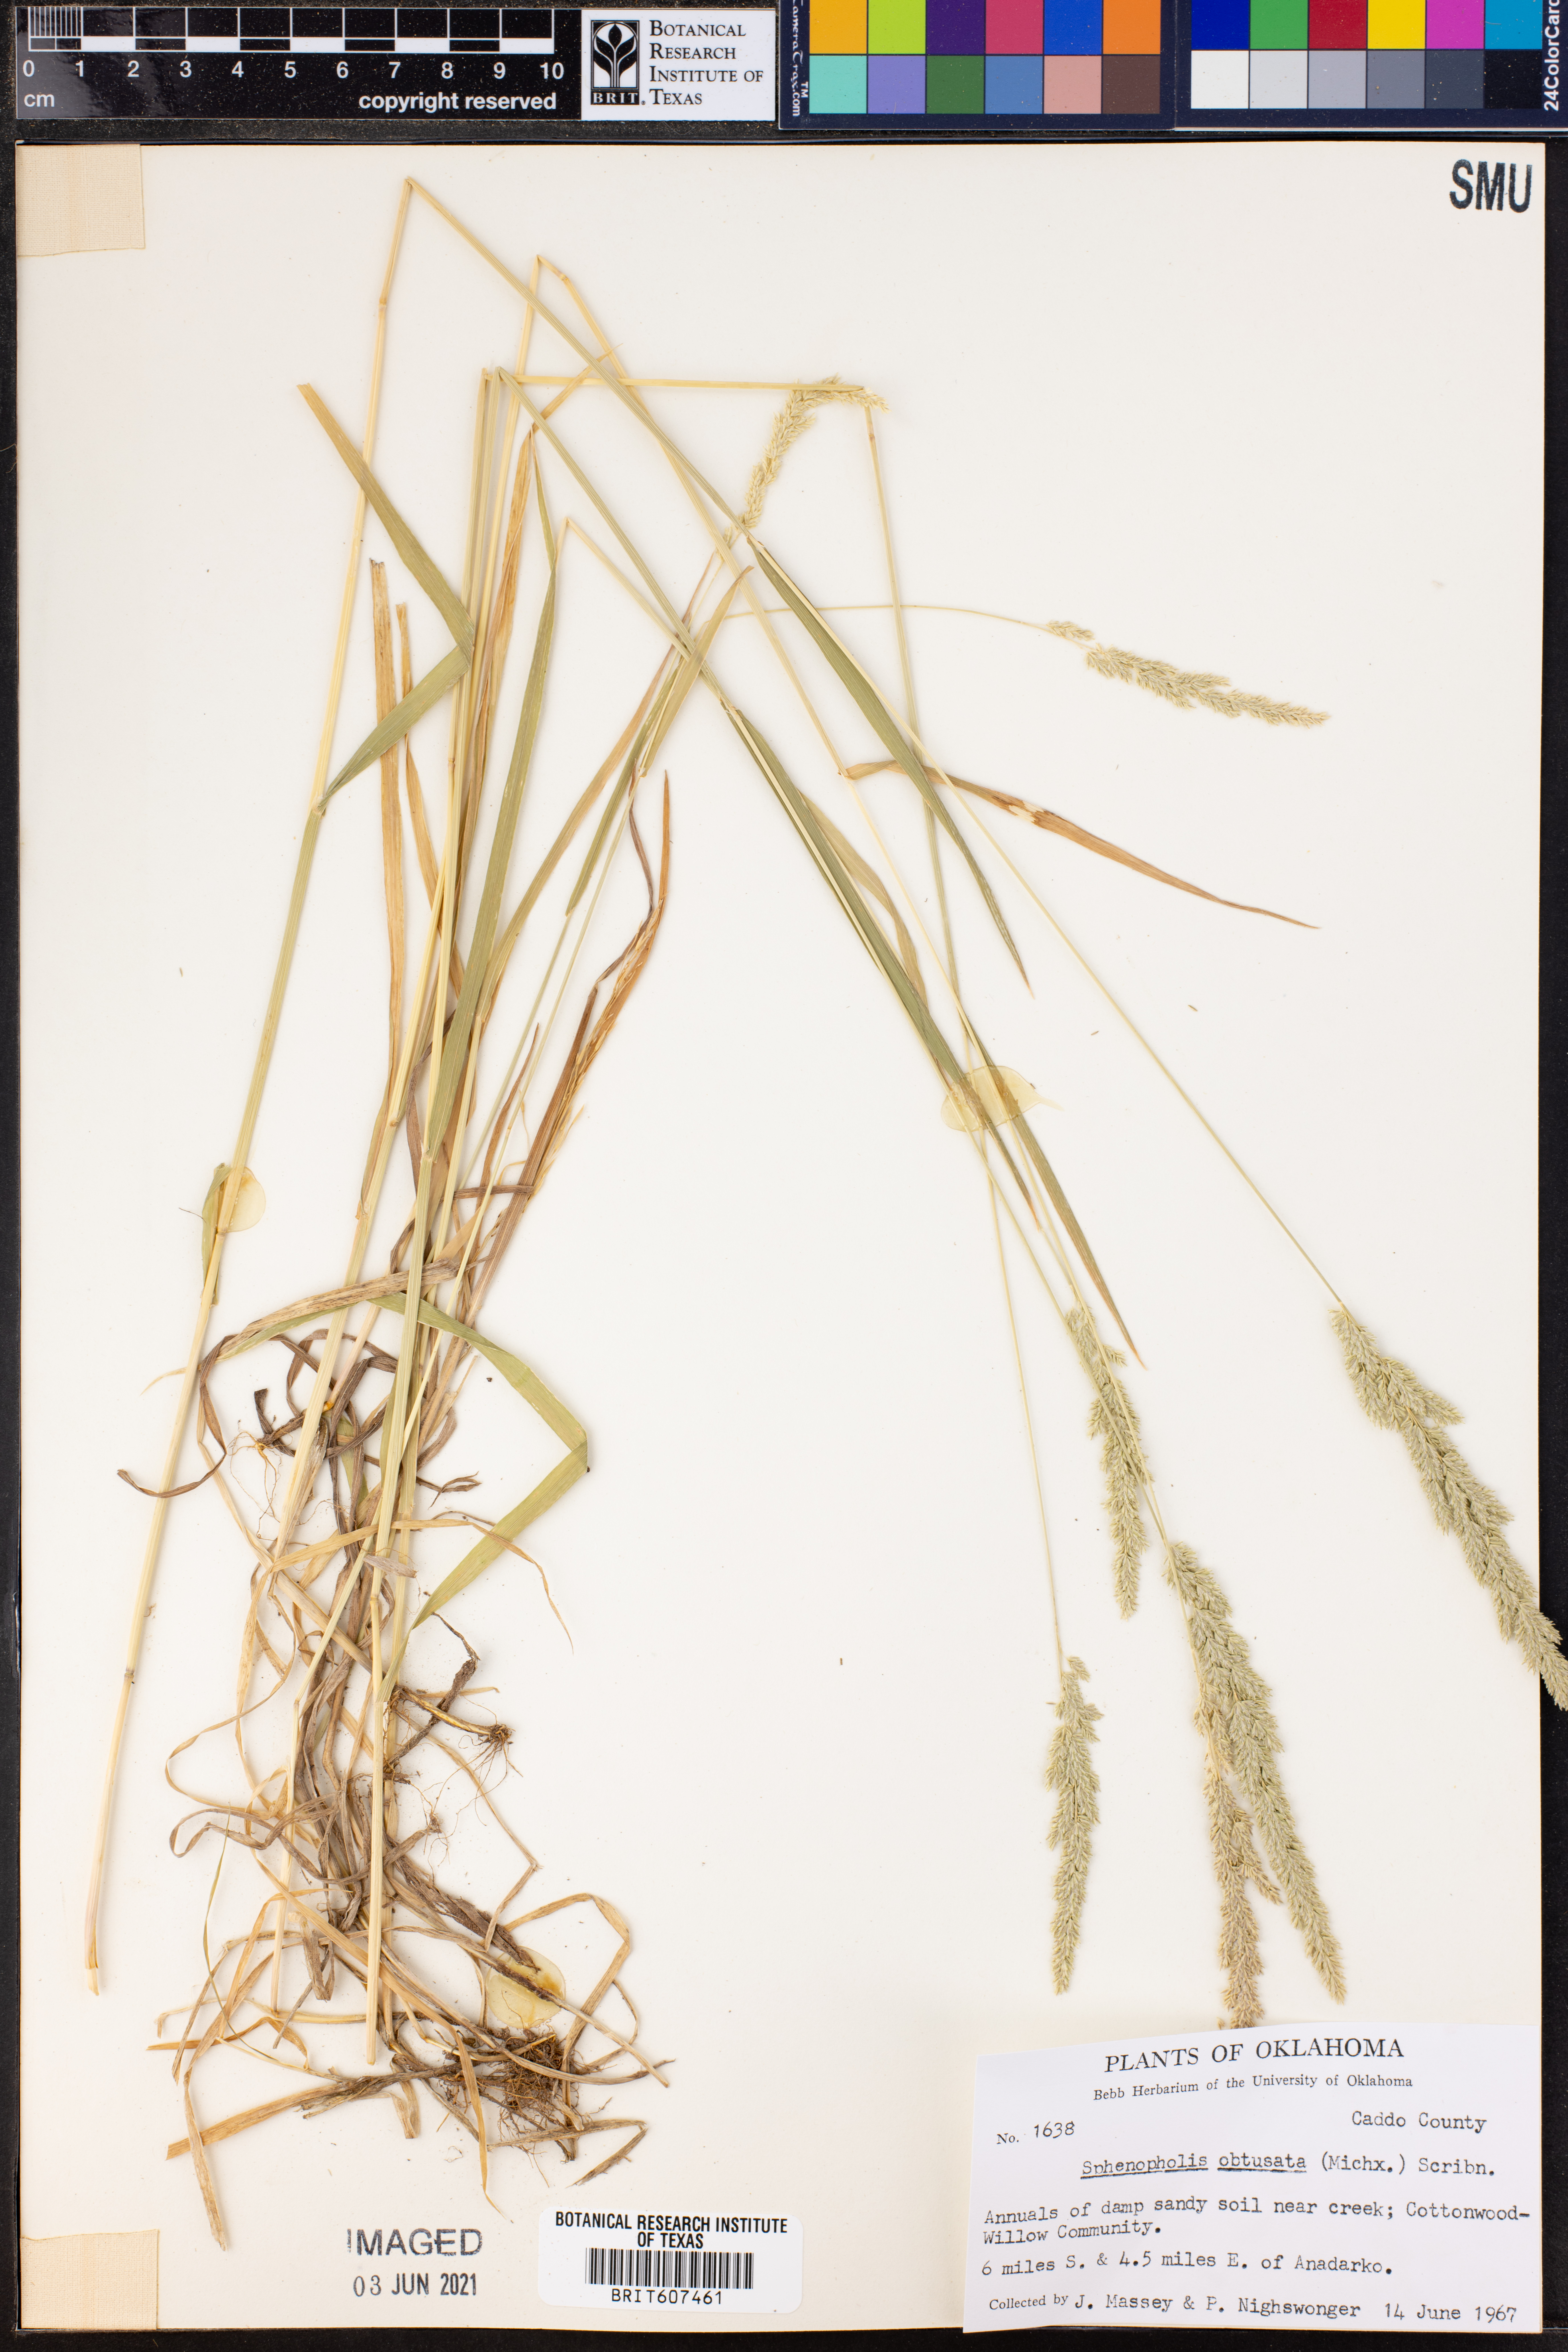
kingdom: Plantae
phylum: Tracheophyta
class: Liliopsida
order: Poales
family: Poaceae
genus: Sphenopholis
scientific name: Sphenopholis obtusata
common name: Prairie grass
